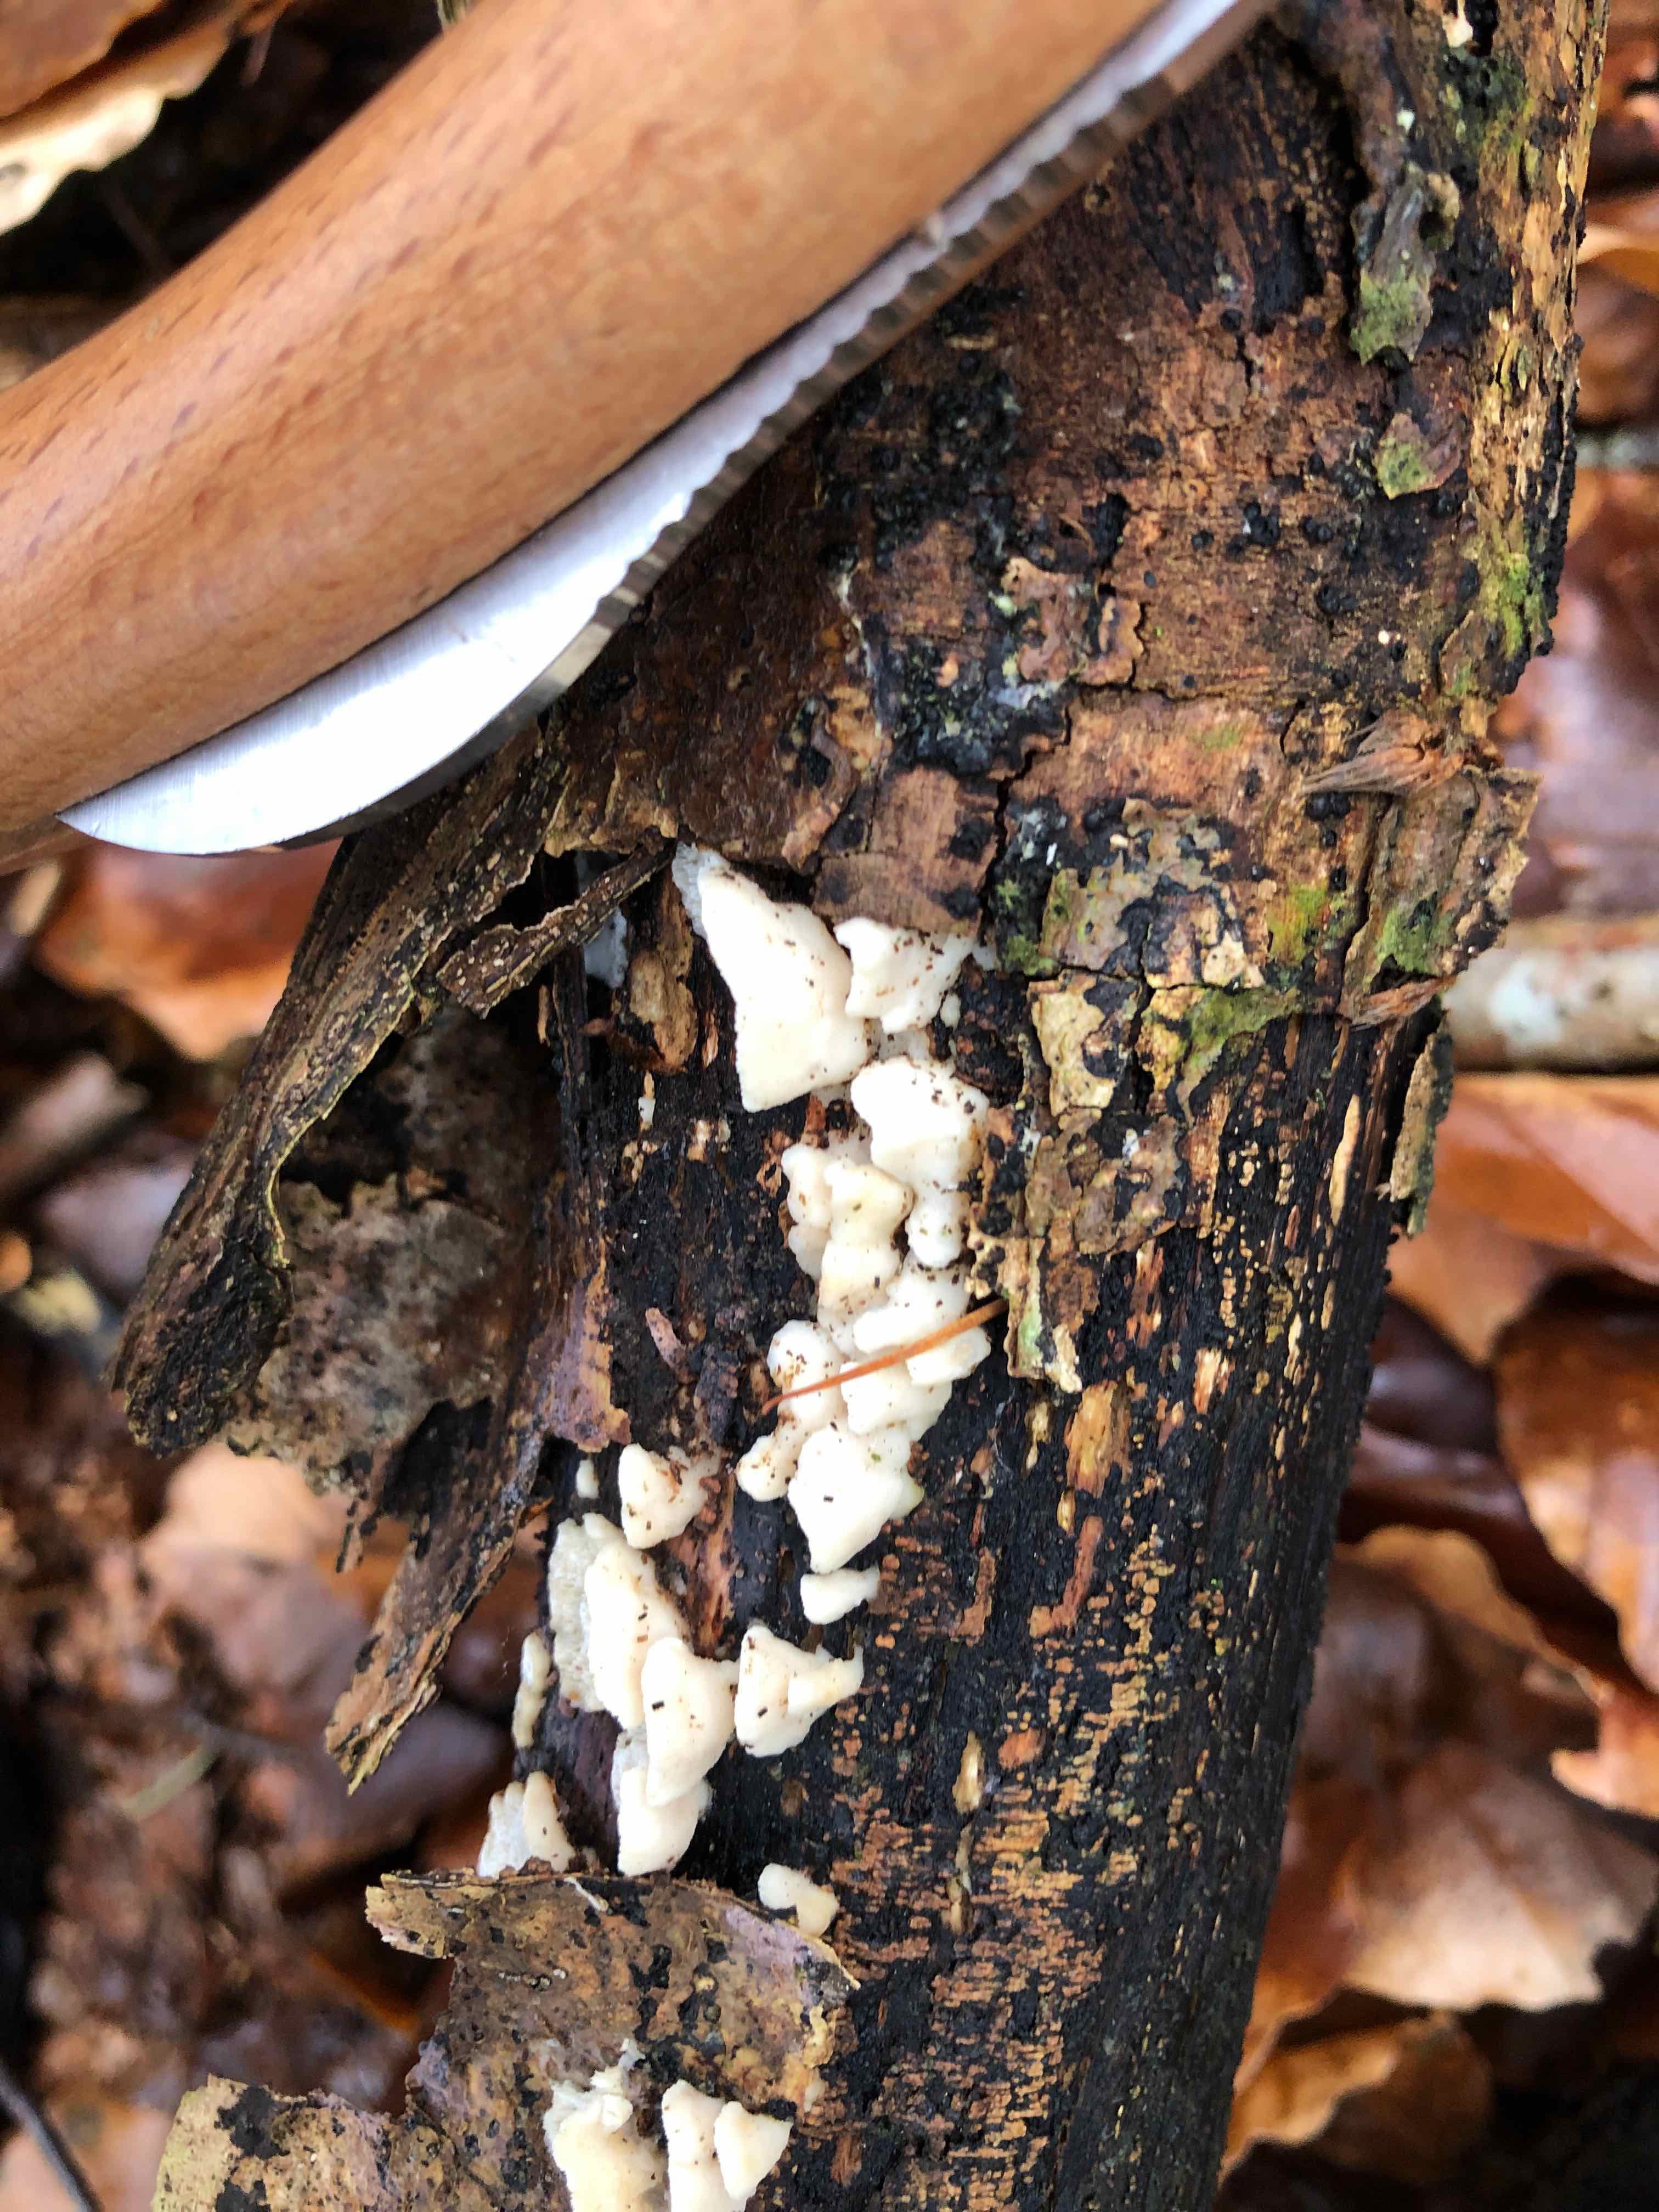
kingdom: Fungi
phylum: Basidiomycota
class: Agaricomycetes
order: Polyporales
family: Steccherinaceae
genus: Antrodiella
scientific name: Antrodiella
